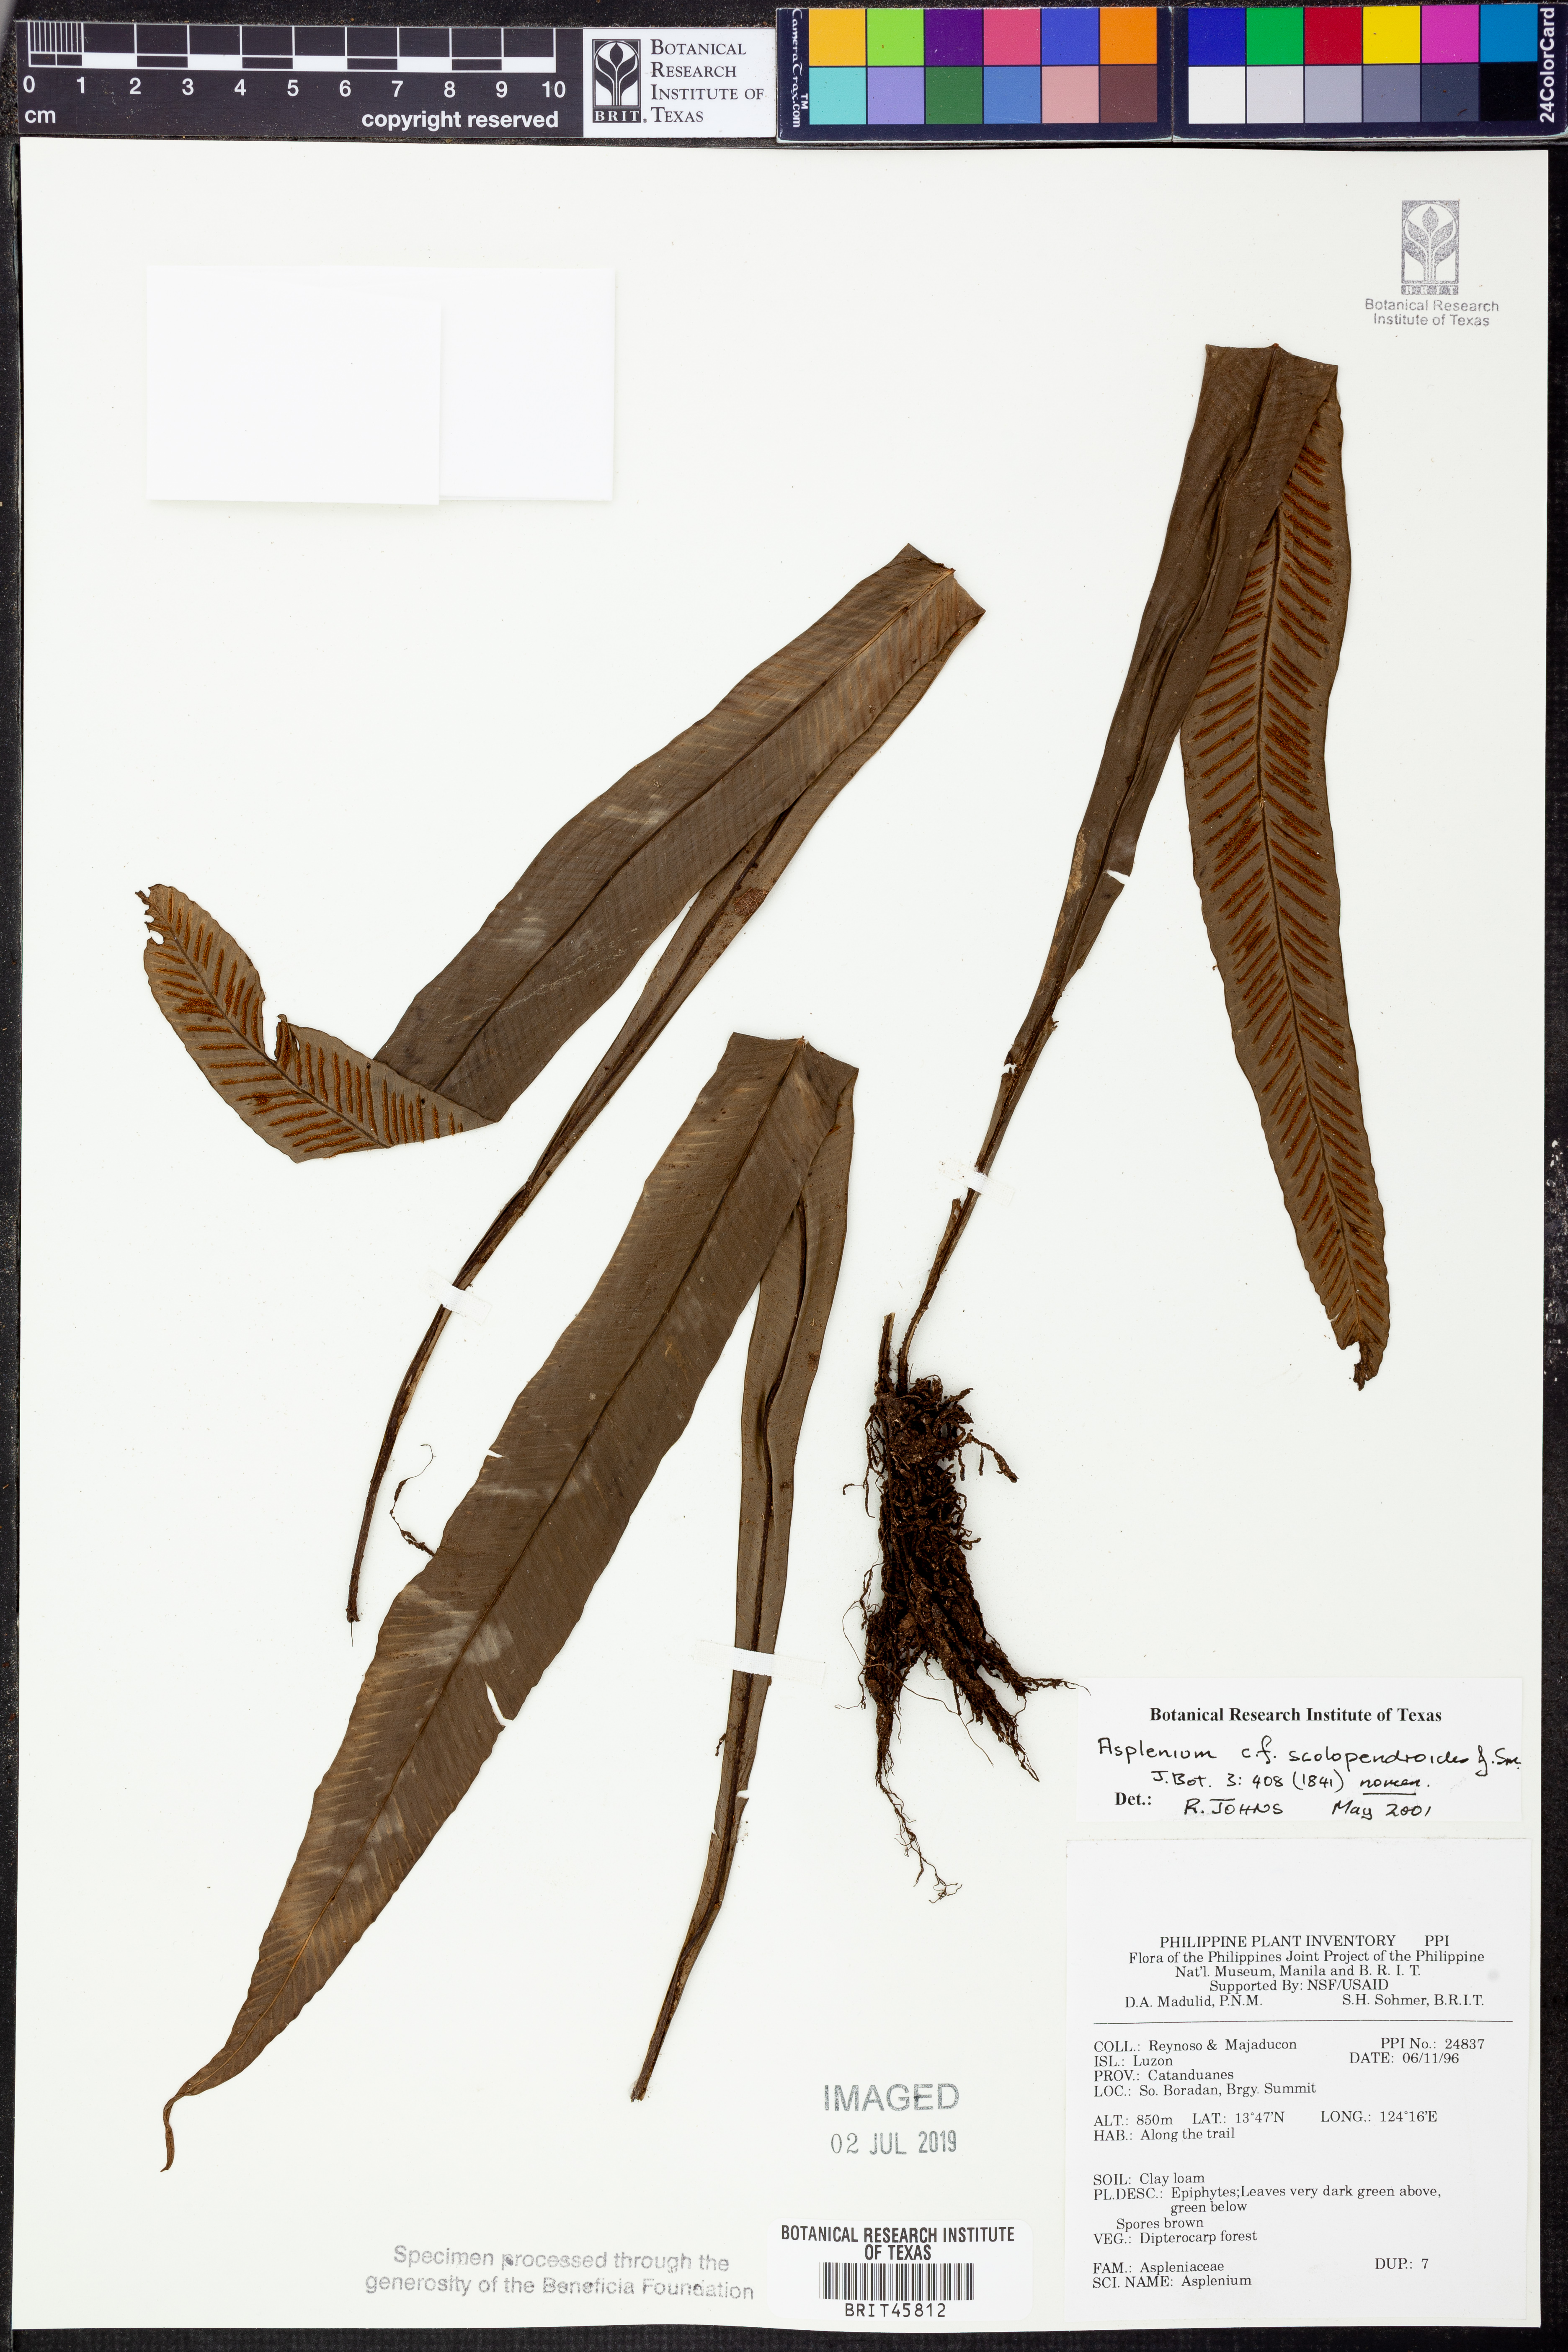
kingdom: Plantae
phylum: Tracheophyta
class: Polypodiopsida
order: Polypodiales
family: Aspleniaceae
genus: Asplenium
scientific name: Asplenium scolopendrium
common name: Hart's-tongue fern
